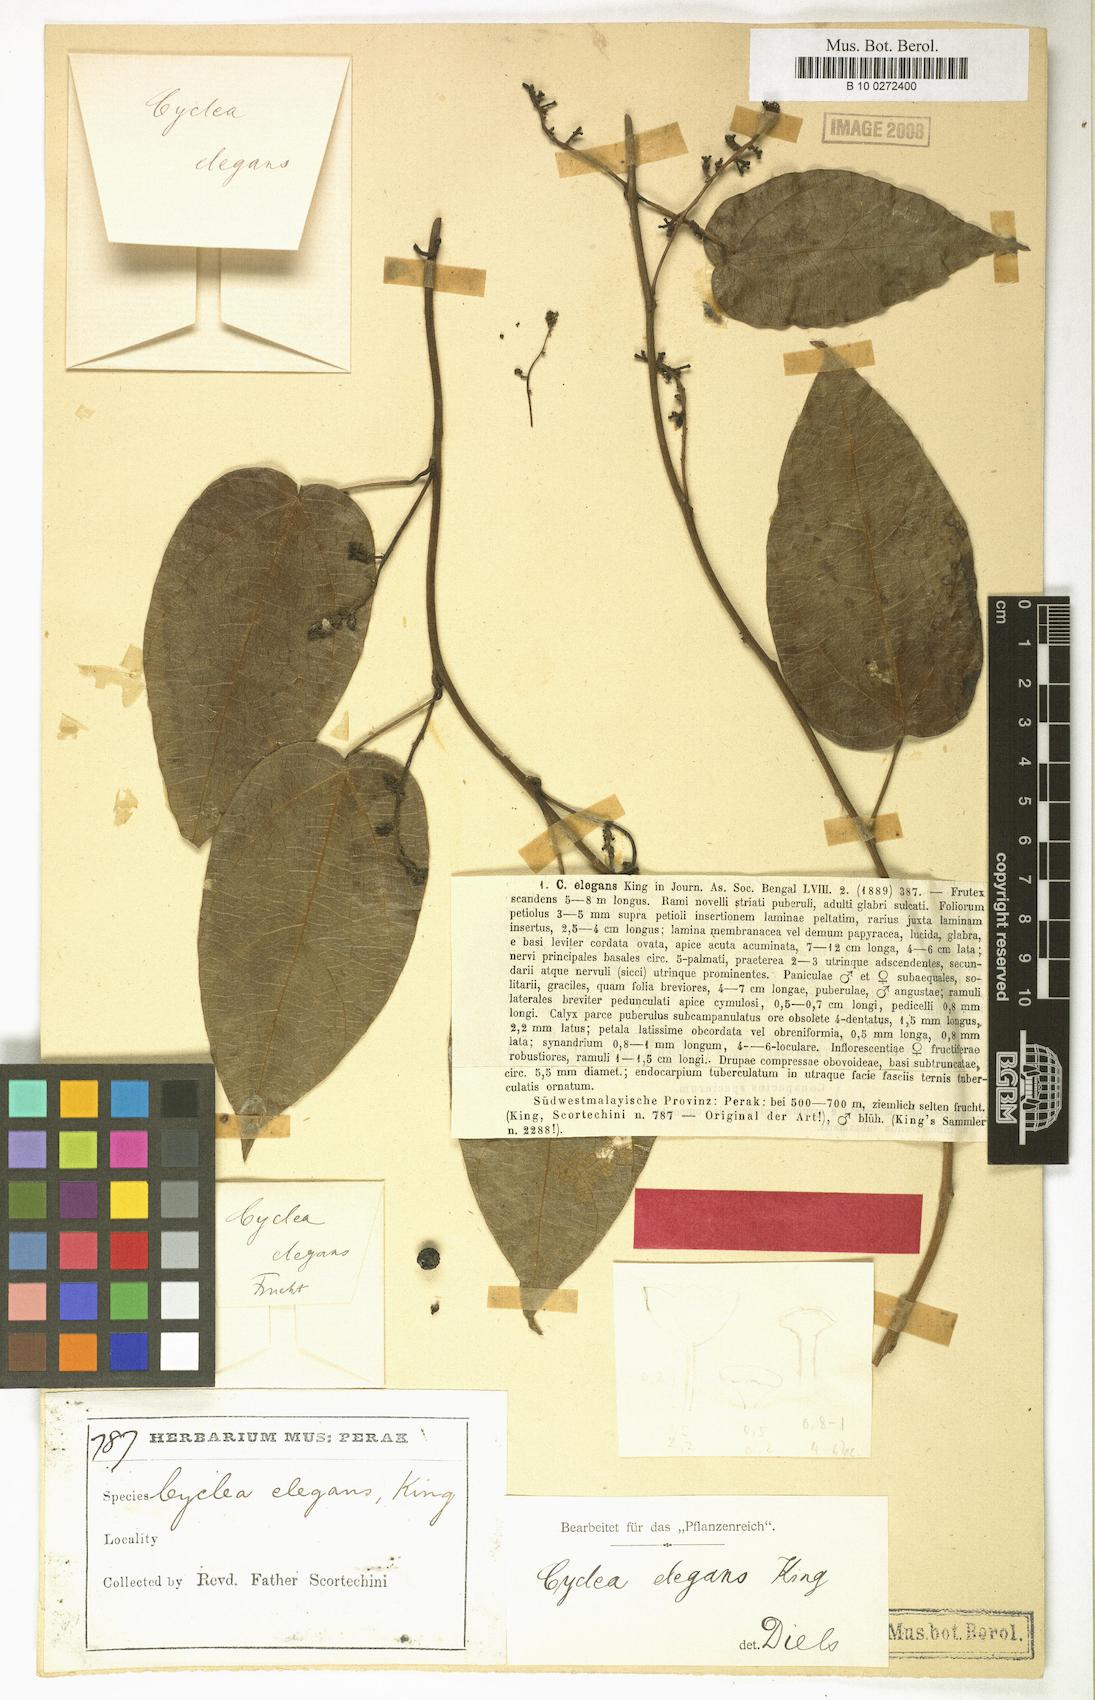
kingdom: Plantae
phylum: Tracheophyta
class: Magnoliopsida
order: Ranunculales
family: Menispermaceae
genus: Cyclea
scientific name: Cyclea elegans
